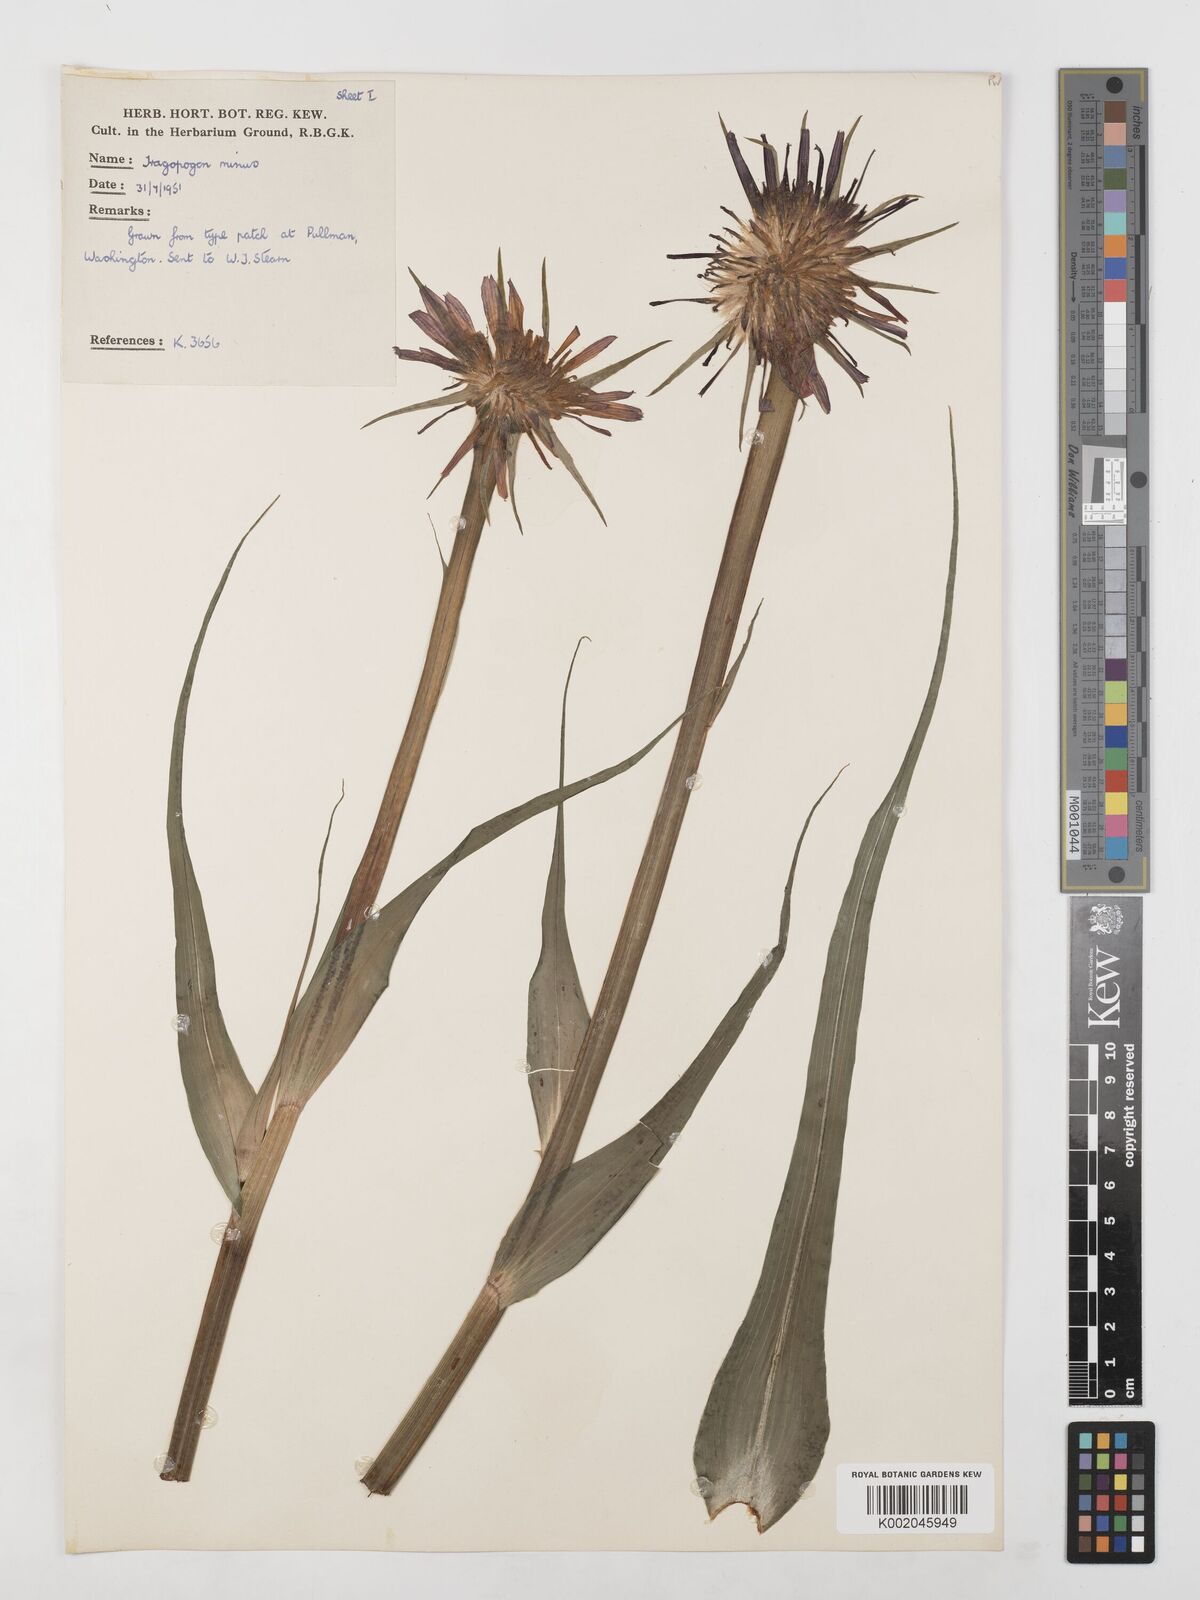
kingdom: Plantae
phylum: Tracheophyta
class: Magnoliopsida
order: Asterales
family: Asteraceae
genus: Tragopogon
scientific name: Tragopogon
